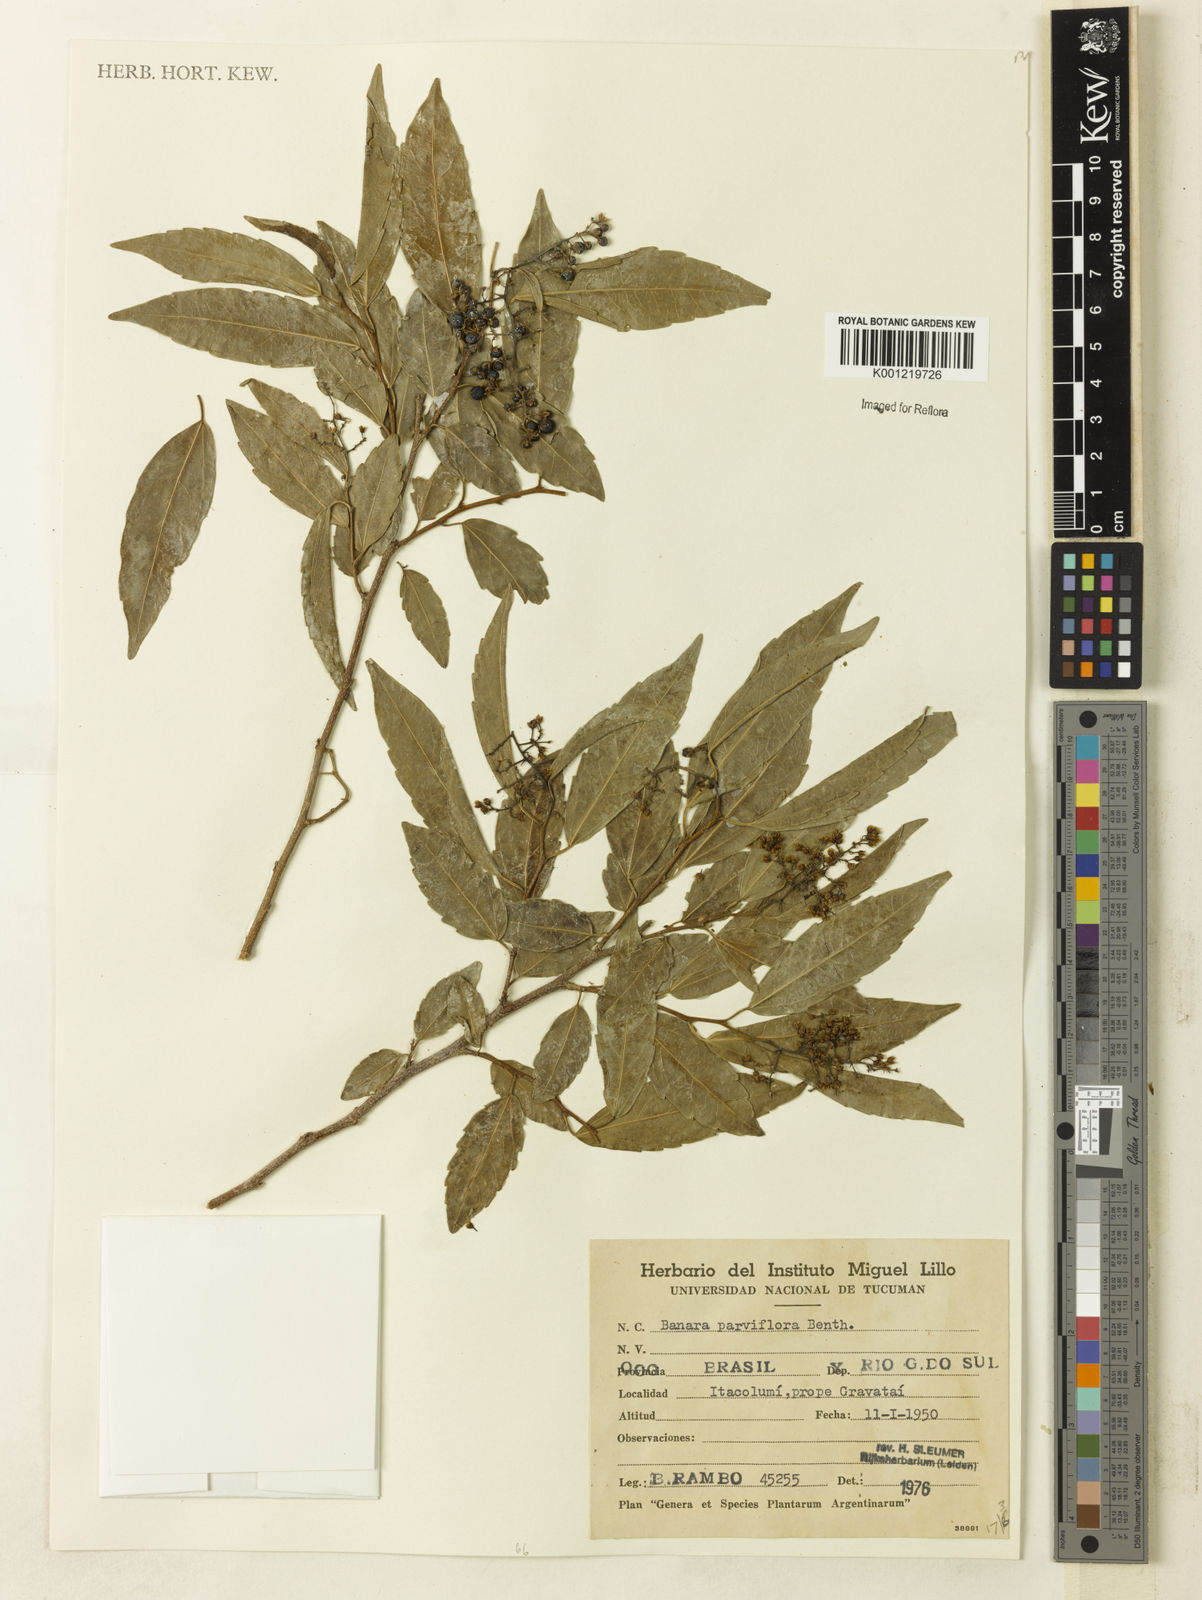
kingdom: Plantae
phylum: Tracheophyta
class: Magnoliopsida
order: Malpighiales
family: Salicaceae
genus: Banara
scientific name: Banara parviflora
